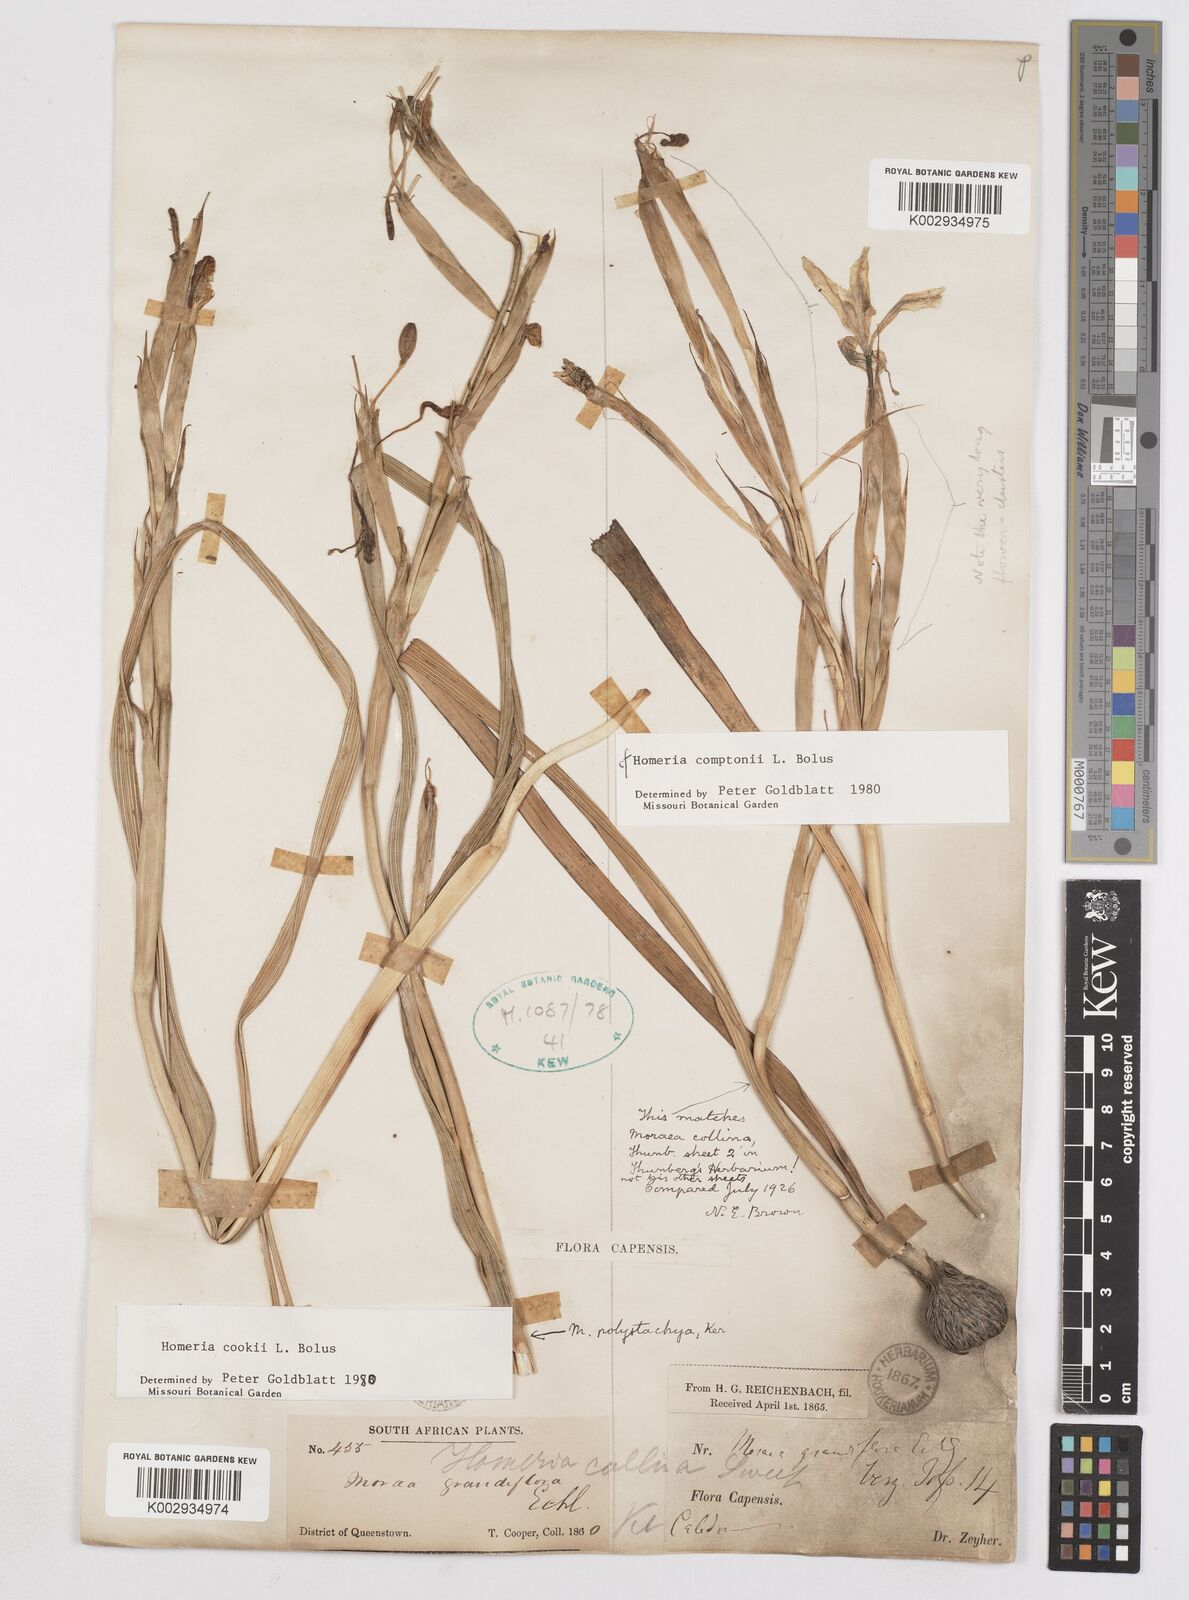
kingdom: Plantae
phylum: Tracheophyta
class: Liliopsida
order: Asparagales
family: Iridaceae
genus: Moraea
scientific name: Moraea cookii
